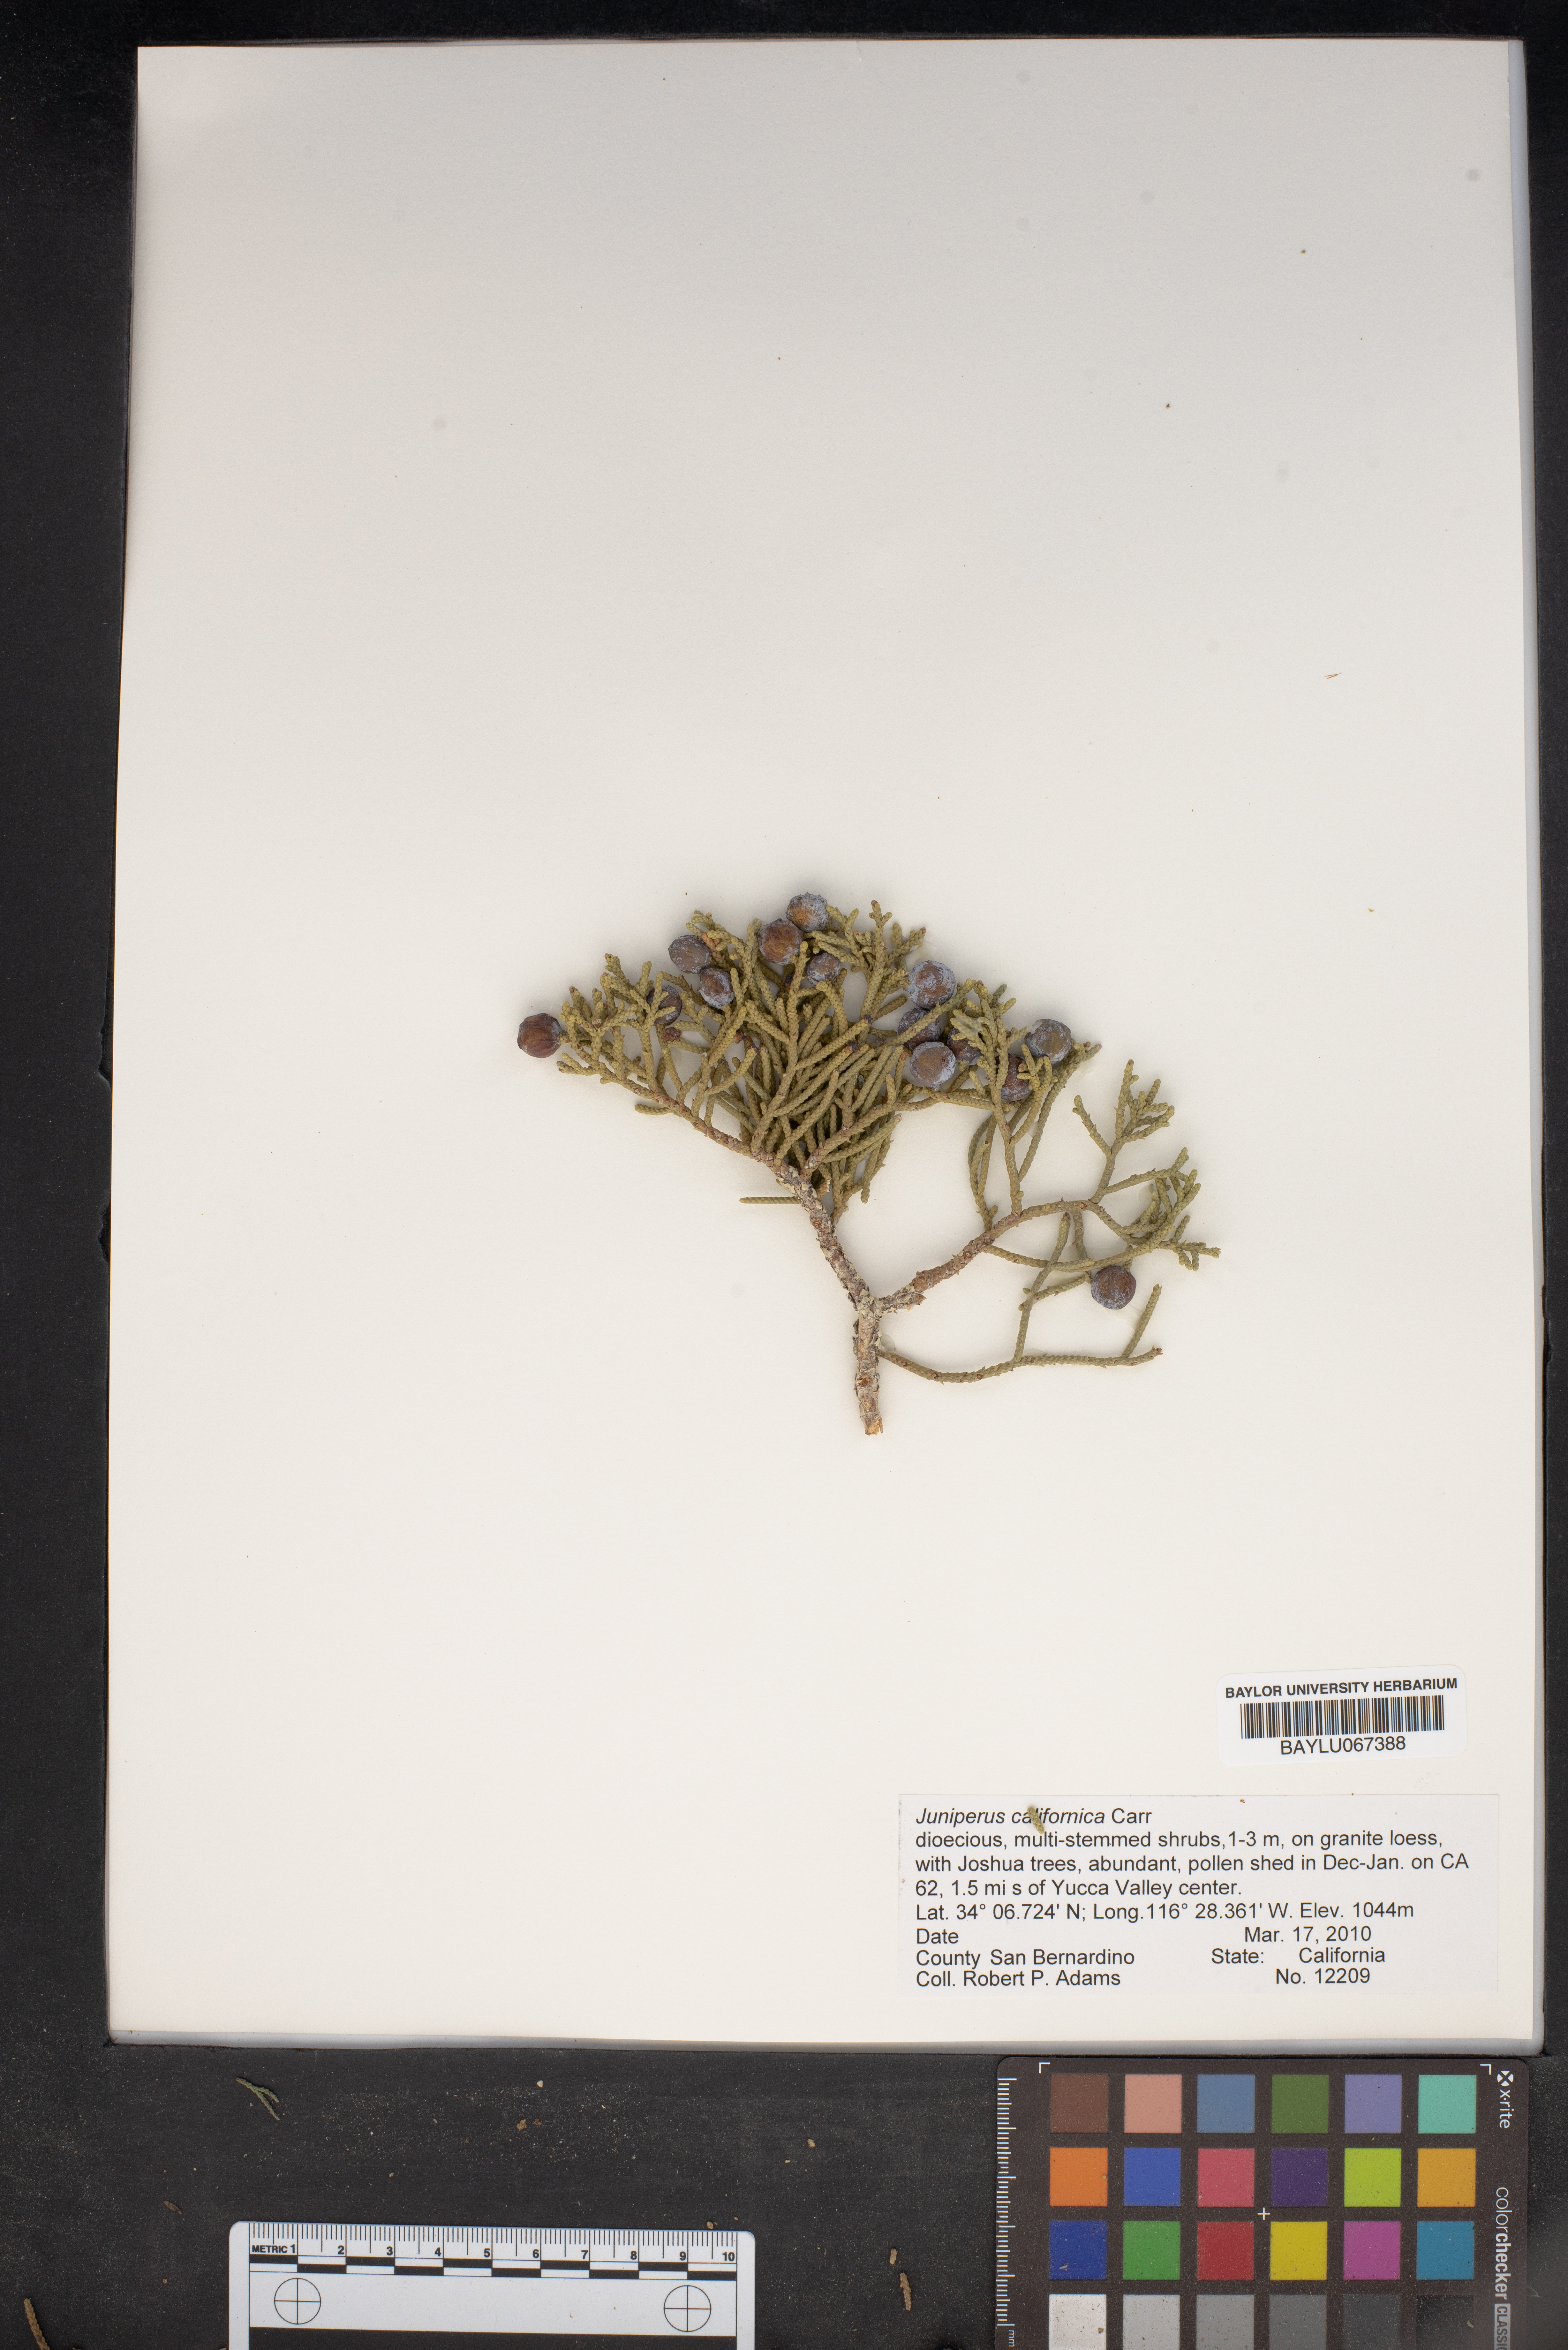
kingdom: Plantae
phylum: Tracheophyta
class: Pinopsida
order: Pinales
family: Cupressaceae
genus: Juniperus
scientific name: Juniperus californica
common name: California juniper
